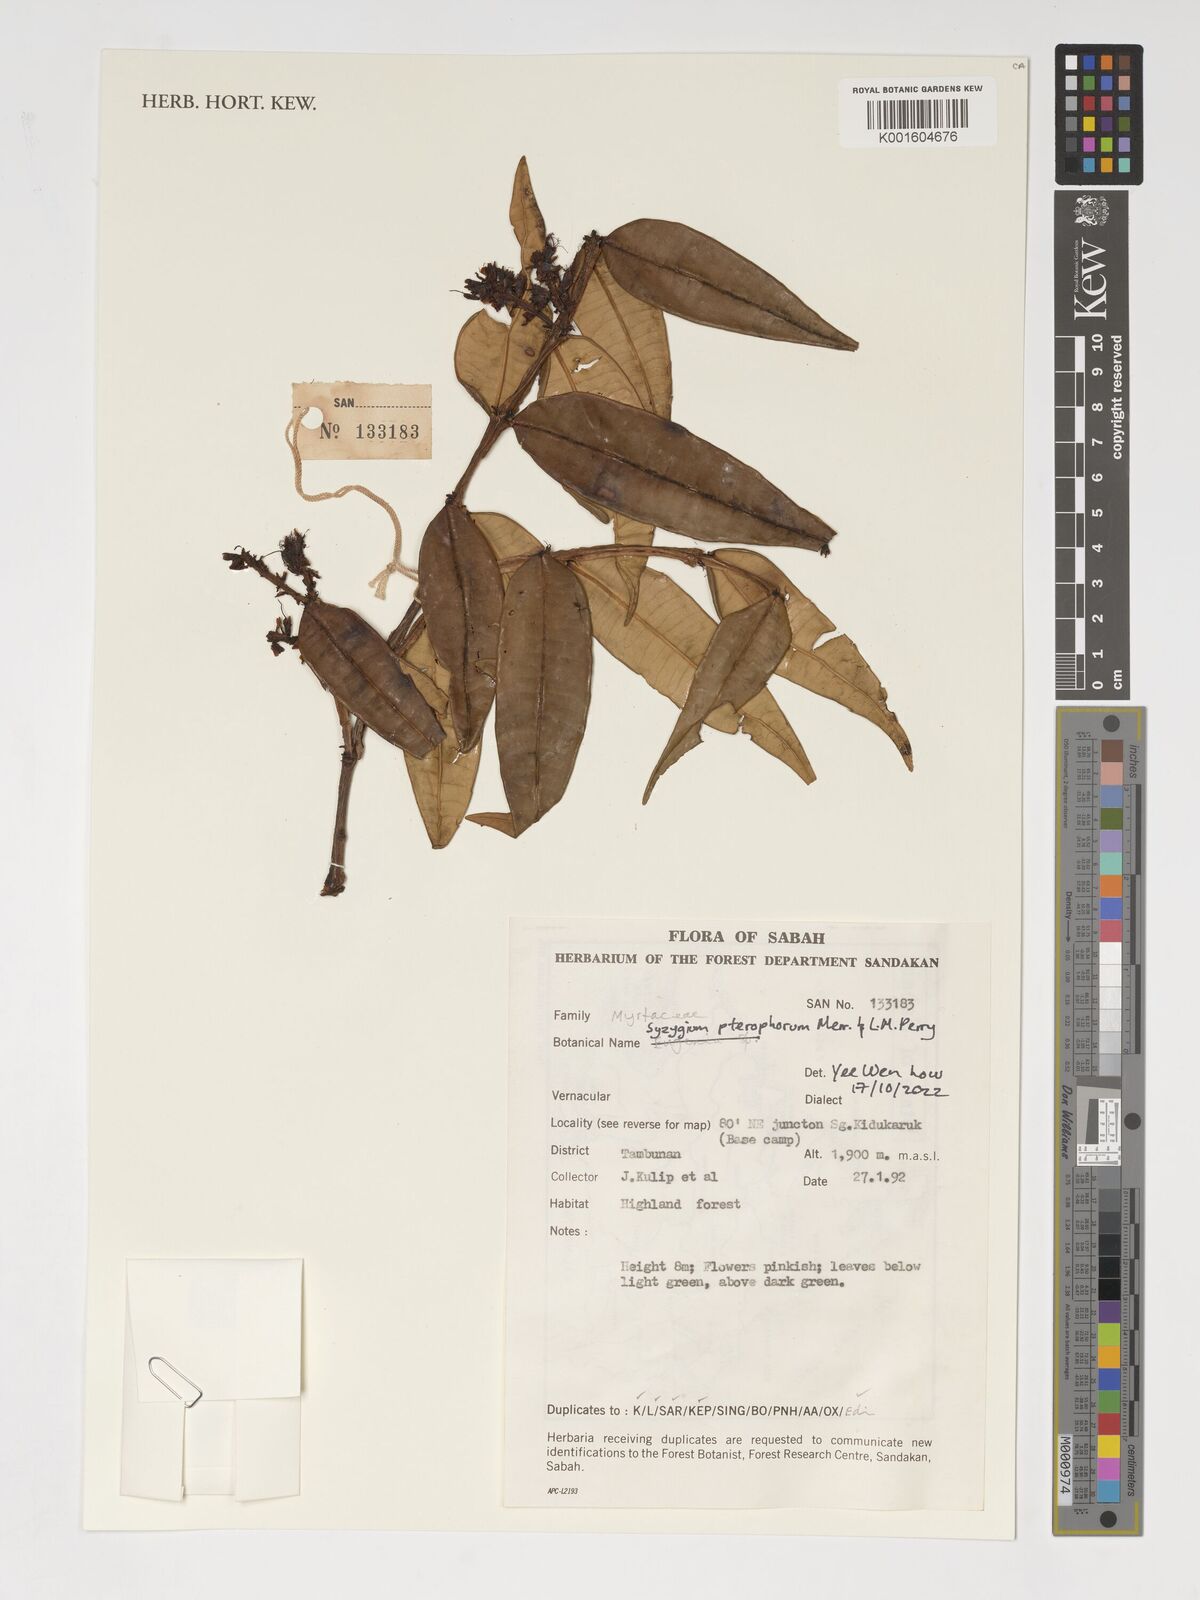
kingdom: Plantae
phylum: Tracheophyta
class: Magnoliopsida
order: Myrtales
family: Myrtaceae
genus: Syzygium
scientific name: Syzygium pterophorum
